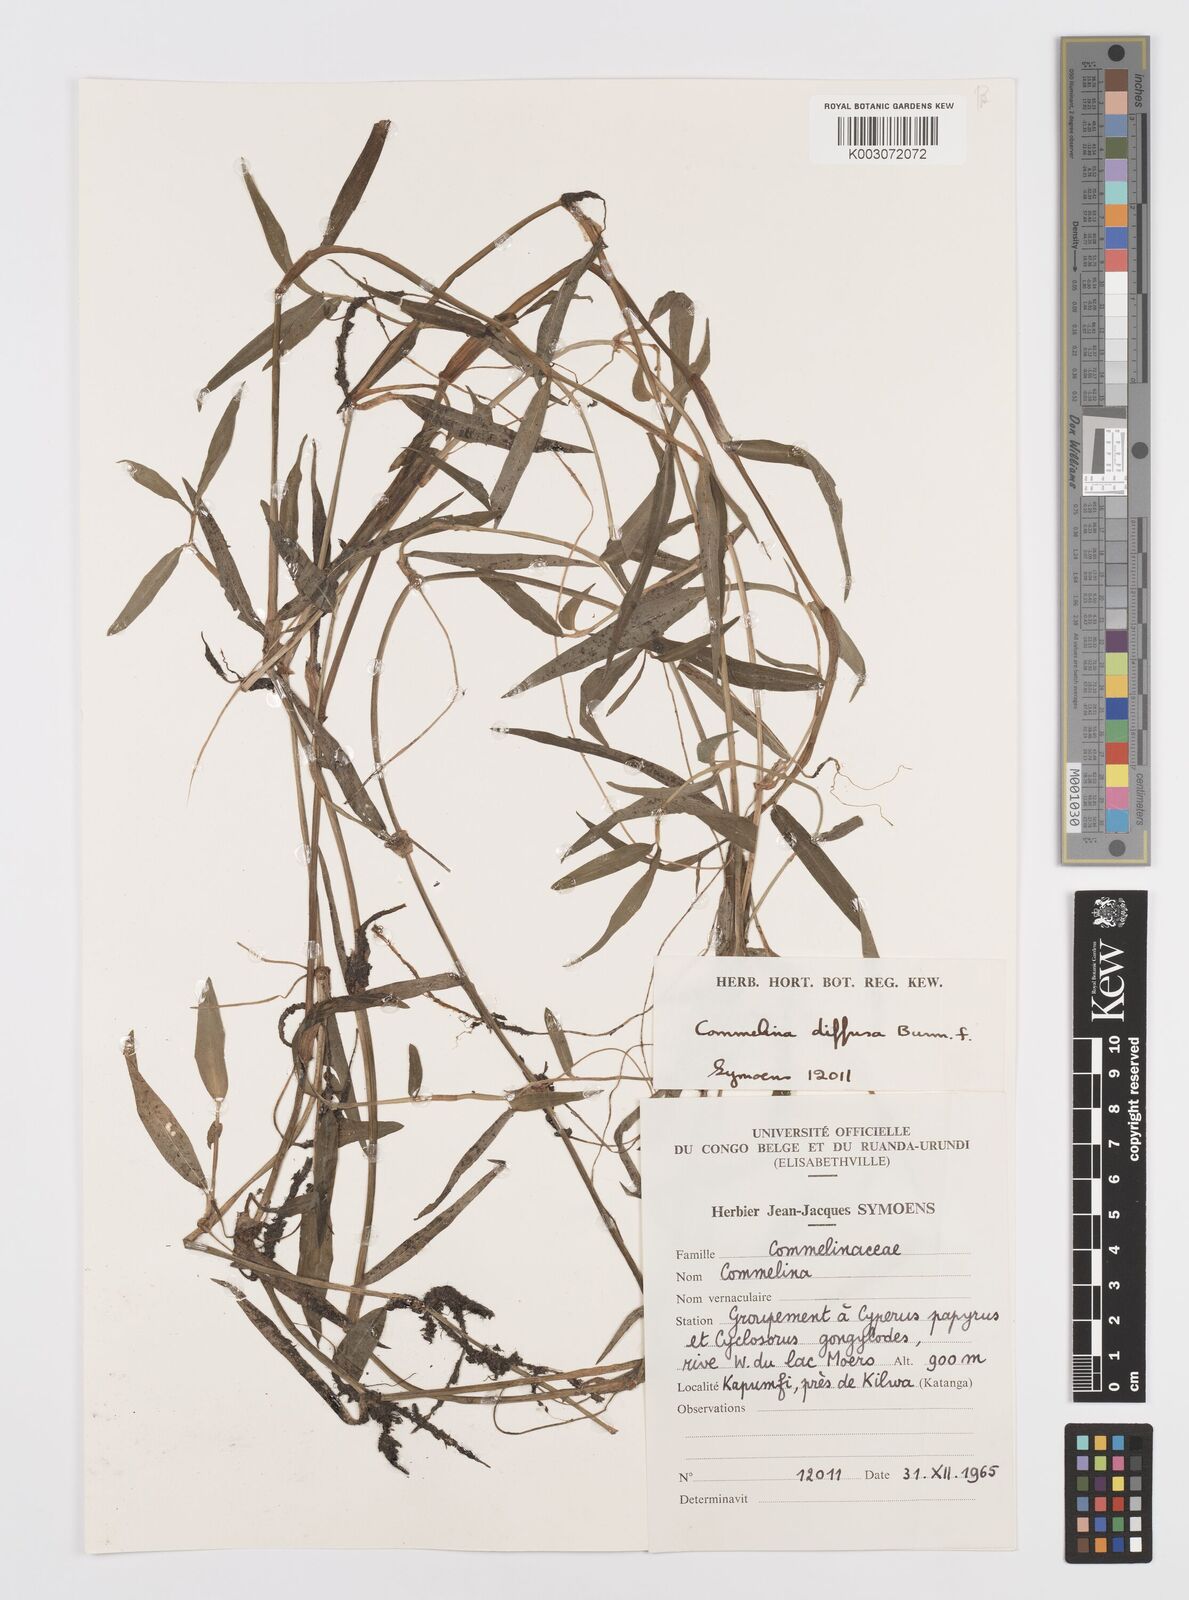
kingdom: Plantae
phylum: Tracheophyta
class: Liliopsida
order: Commelinales
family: Commelinaceae
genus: Commelina
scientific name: Commelina diffusa
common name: Climbing dayflower
